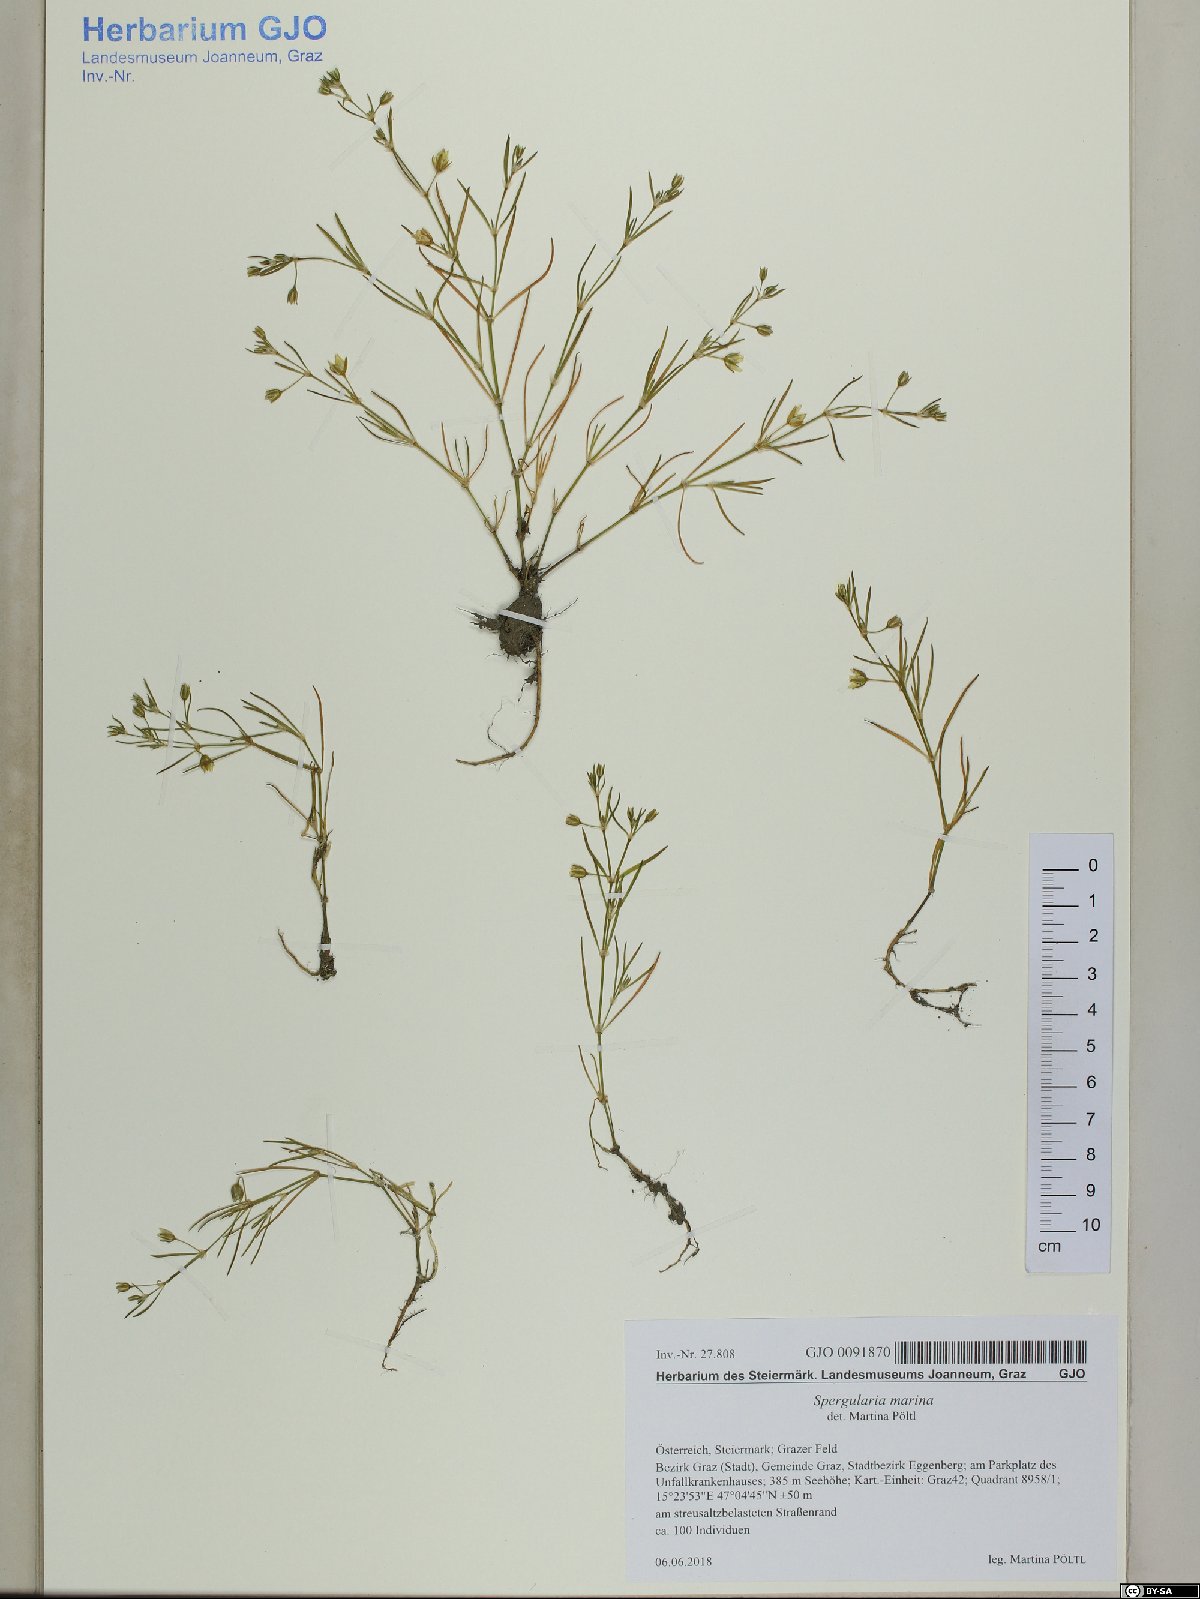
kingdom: Plantae
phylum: Tracheophyta
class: Magnoliopsida
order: Caryophyllales
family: Caryophyllaceae
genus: Spergularia
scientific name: Spergularia marina
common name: Lesser sea-spurrey
